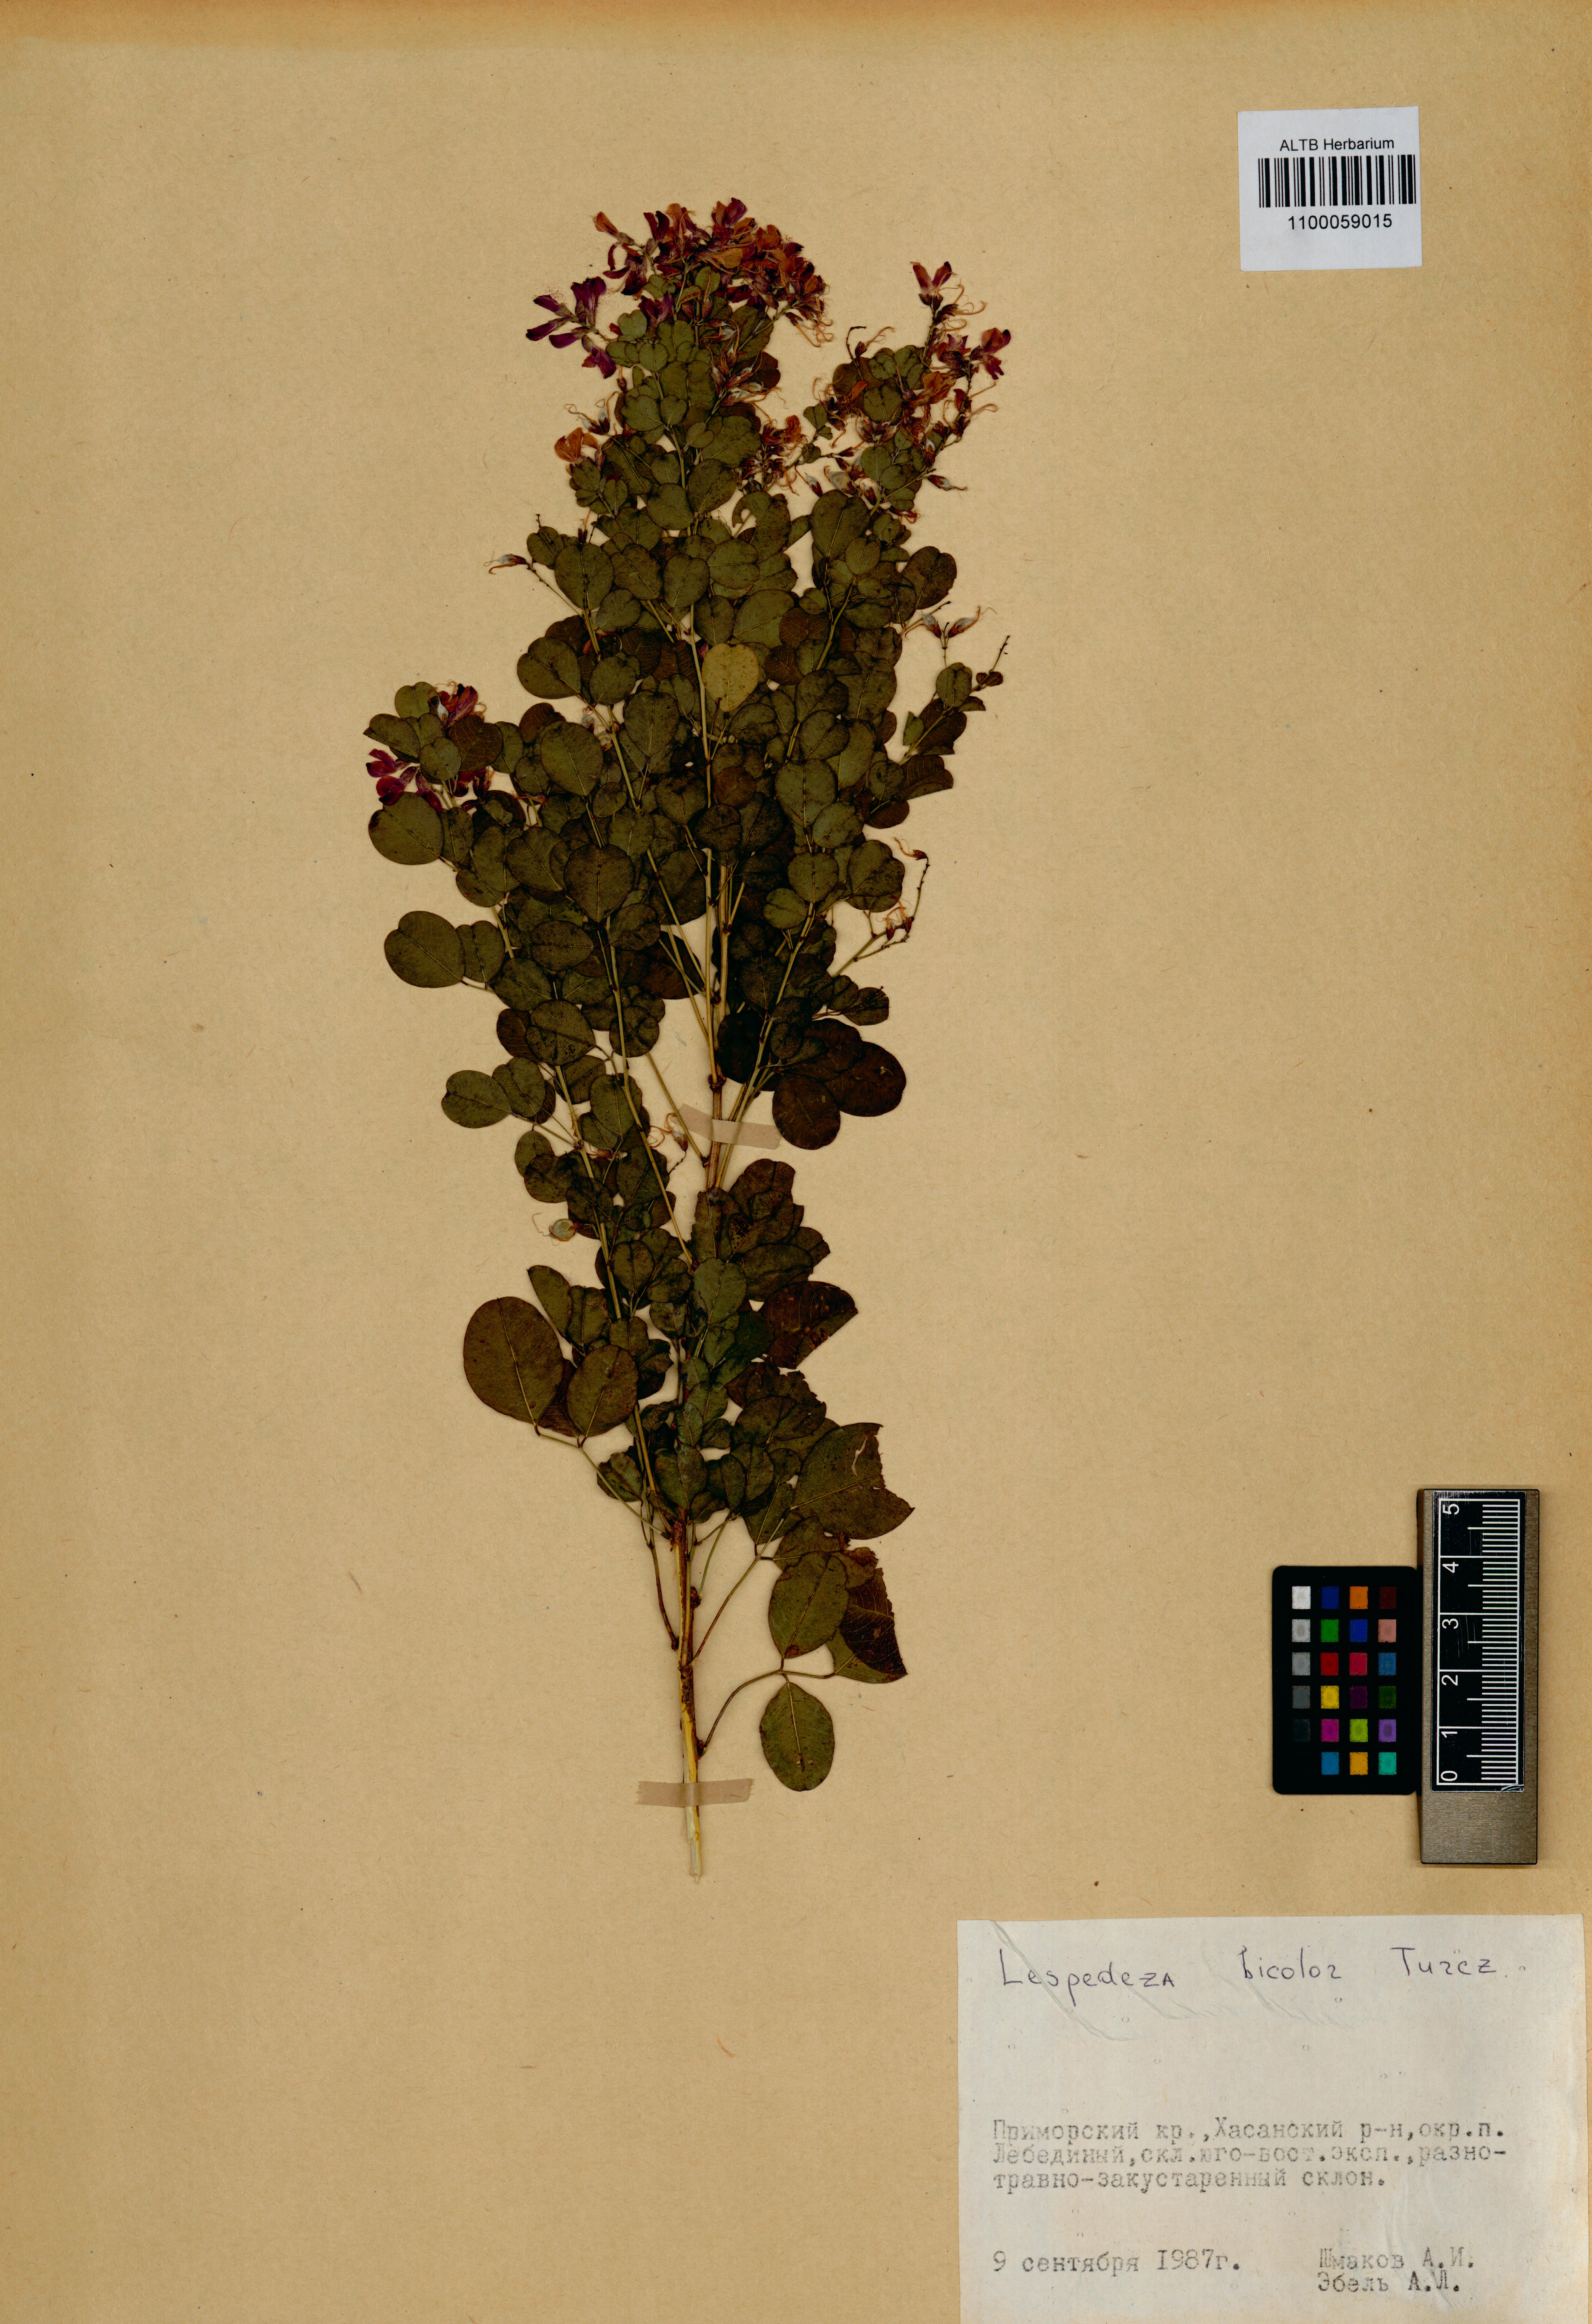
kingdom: Plantae
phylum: Tracheophyta
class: Magnoliopsida
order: Fabales
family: Fabaceae
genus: Lespedeza
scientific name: Lespedeza bicolor
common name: Shrub lespedeza
